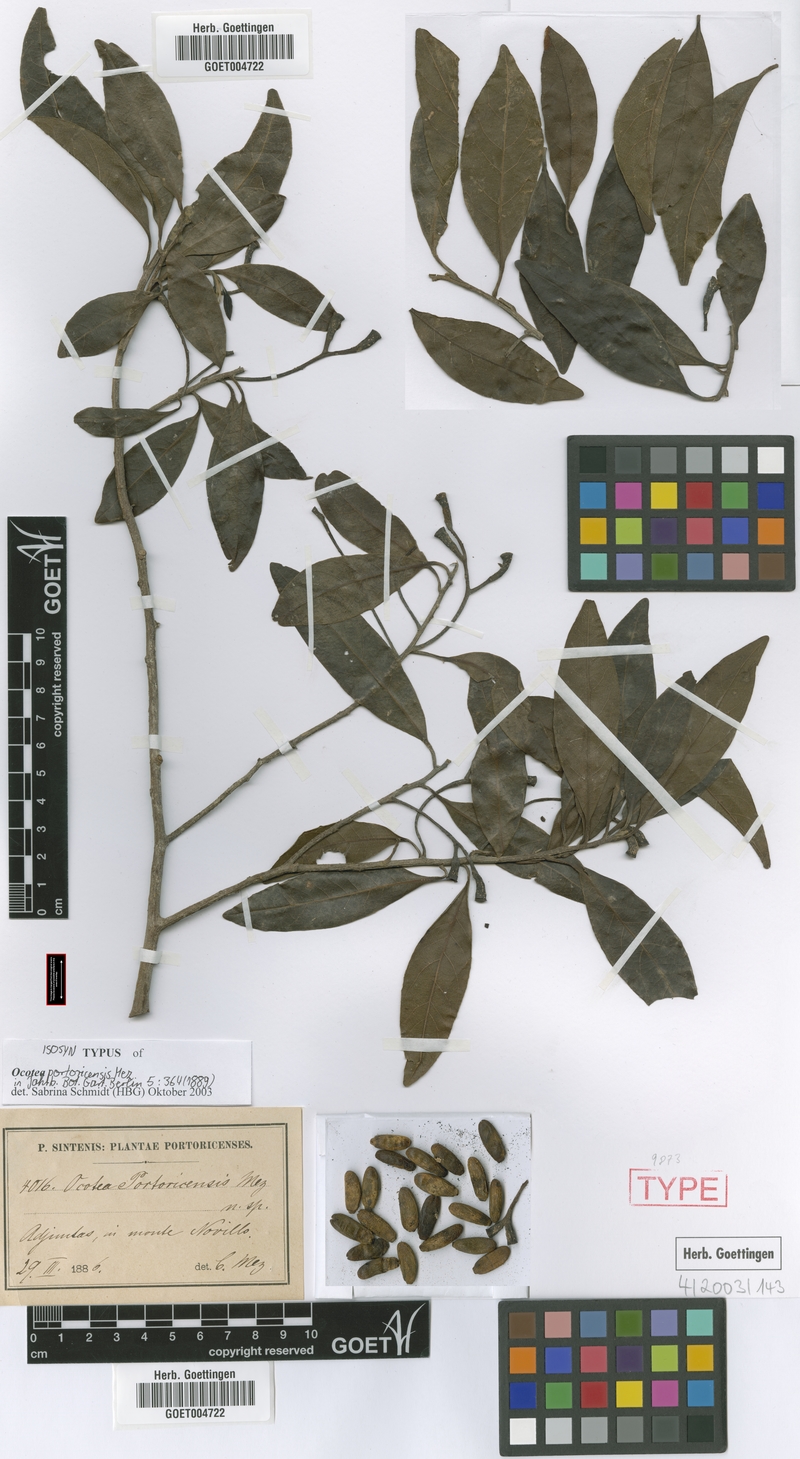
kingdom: Plantae
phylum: Tracheophyta
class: Magnoliopsida
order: Laurales
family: Lauraceae
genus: Ocotea
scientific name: Ocotea portoricensis
